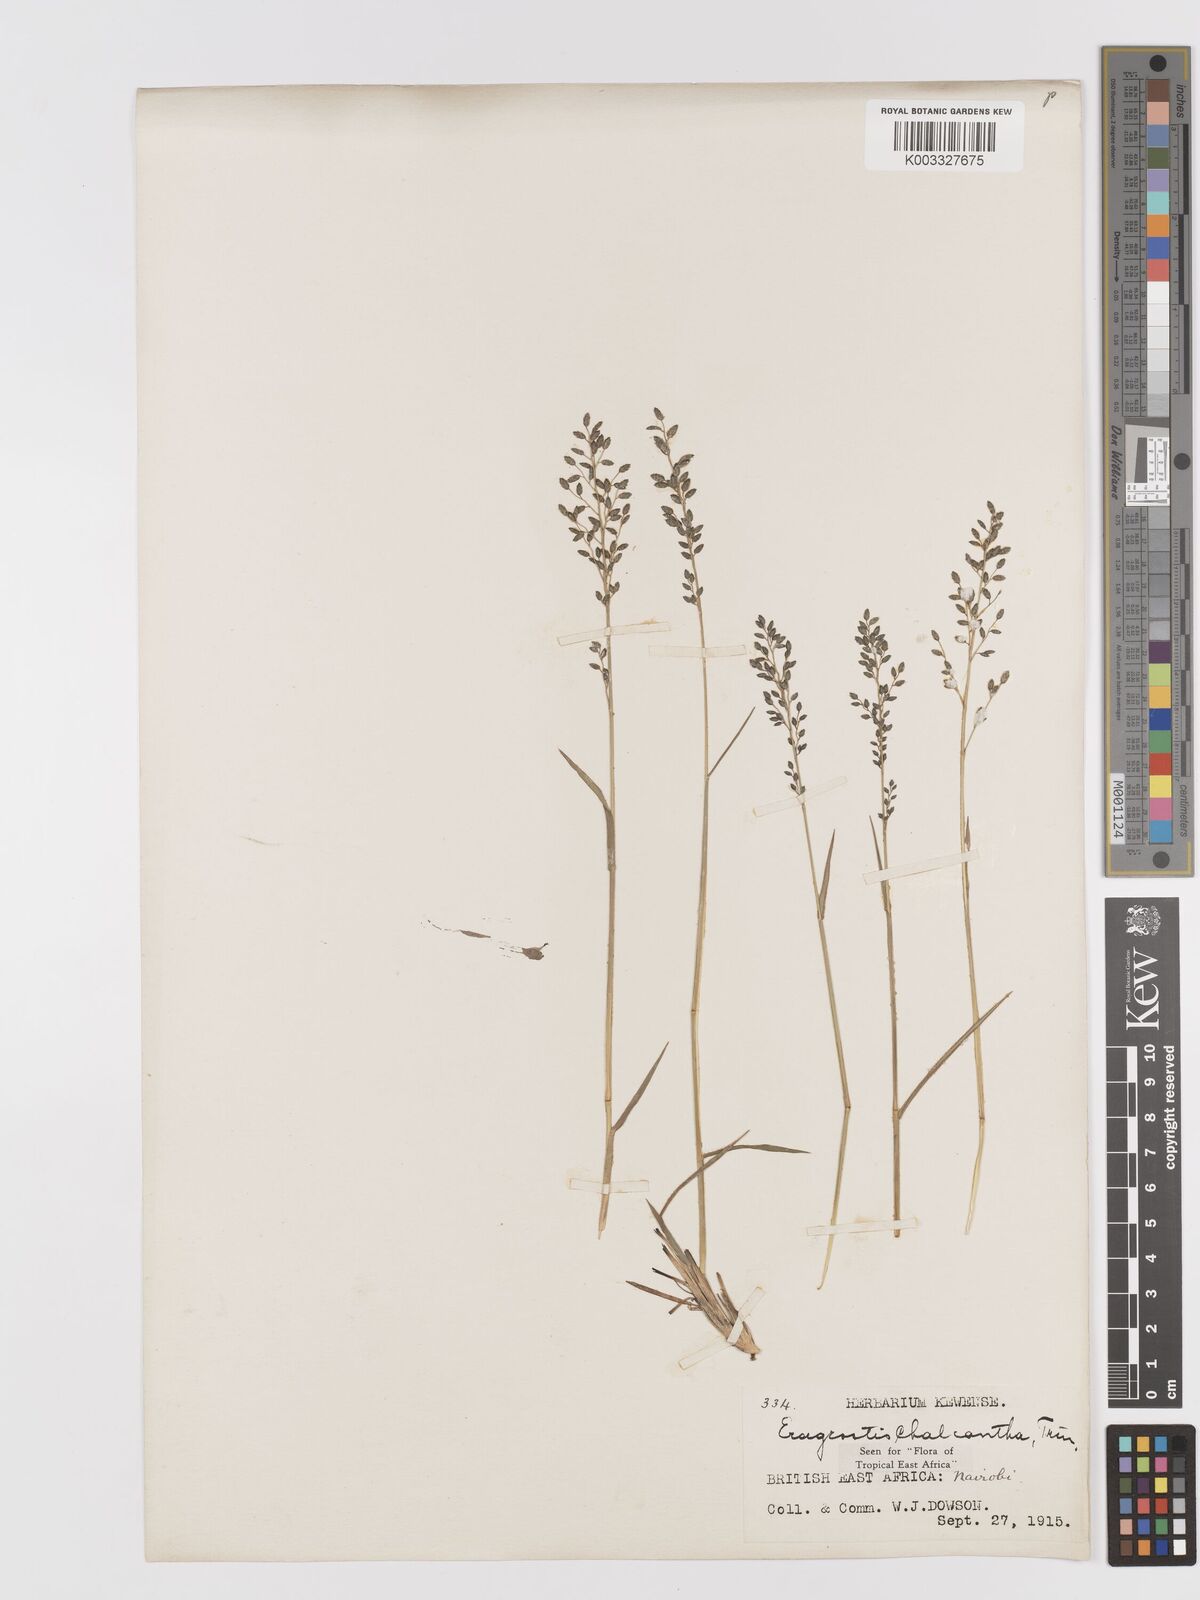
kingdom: Plantae
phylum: Tracheophyta
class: Liliopsida
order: Poales
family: Poaceae
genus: Eragrostis
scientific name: Eragrostis racemosa
